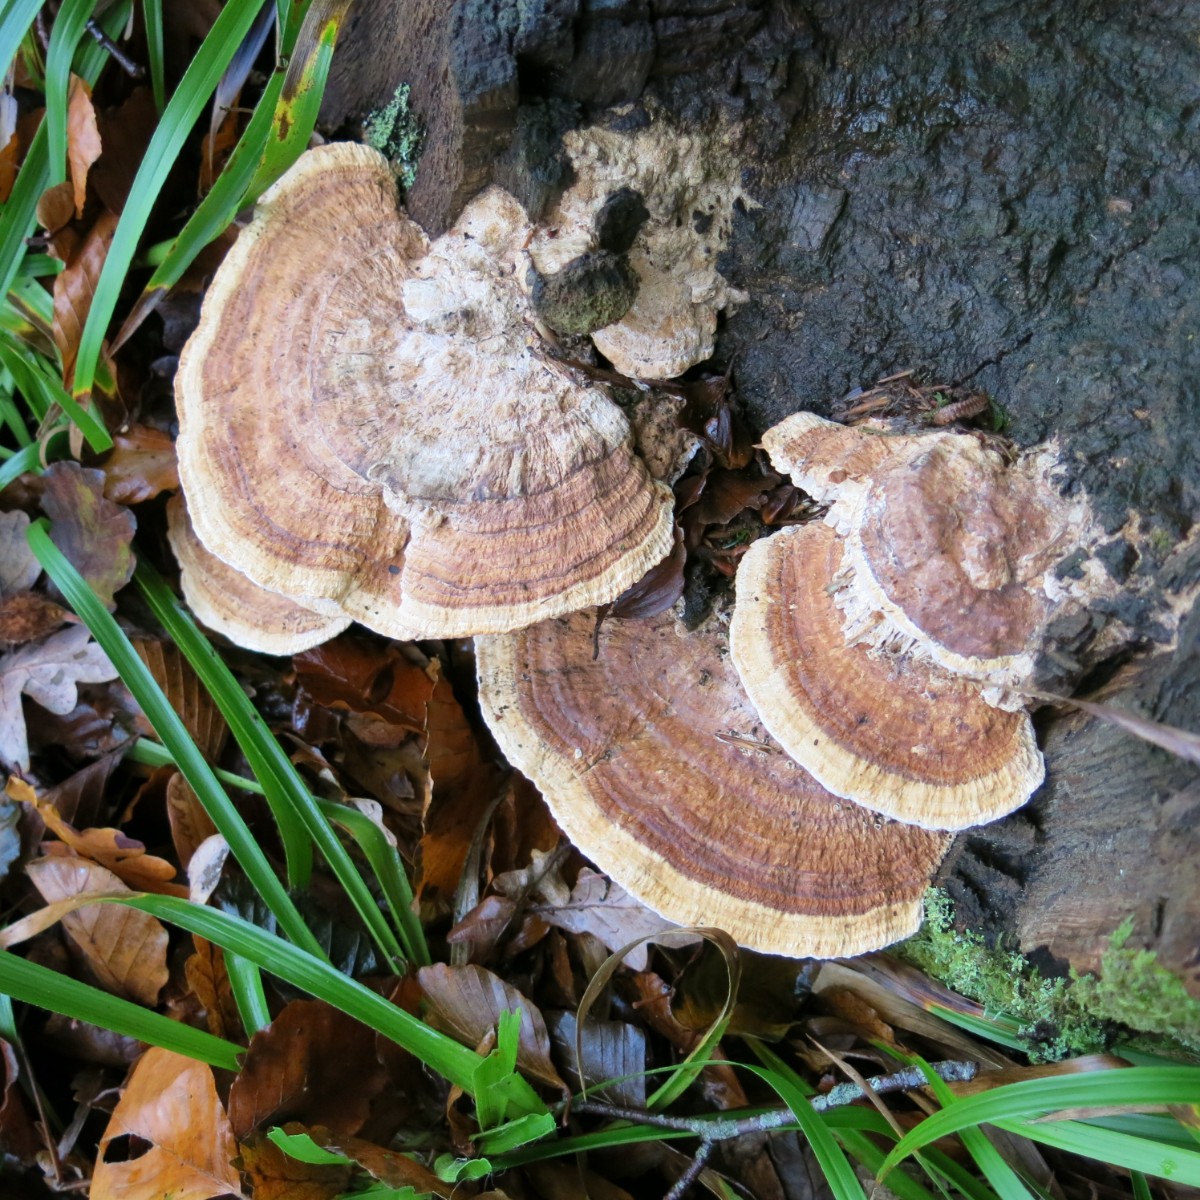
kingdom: Fungi
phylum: Basidiomycota
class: Agaricomycetes
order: Polyporales
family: Fomitopsidaceae
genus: Daedalea
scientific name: Daedalea quercina
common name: ege-labyrintsvamp
